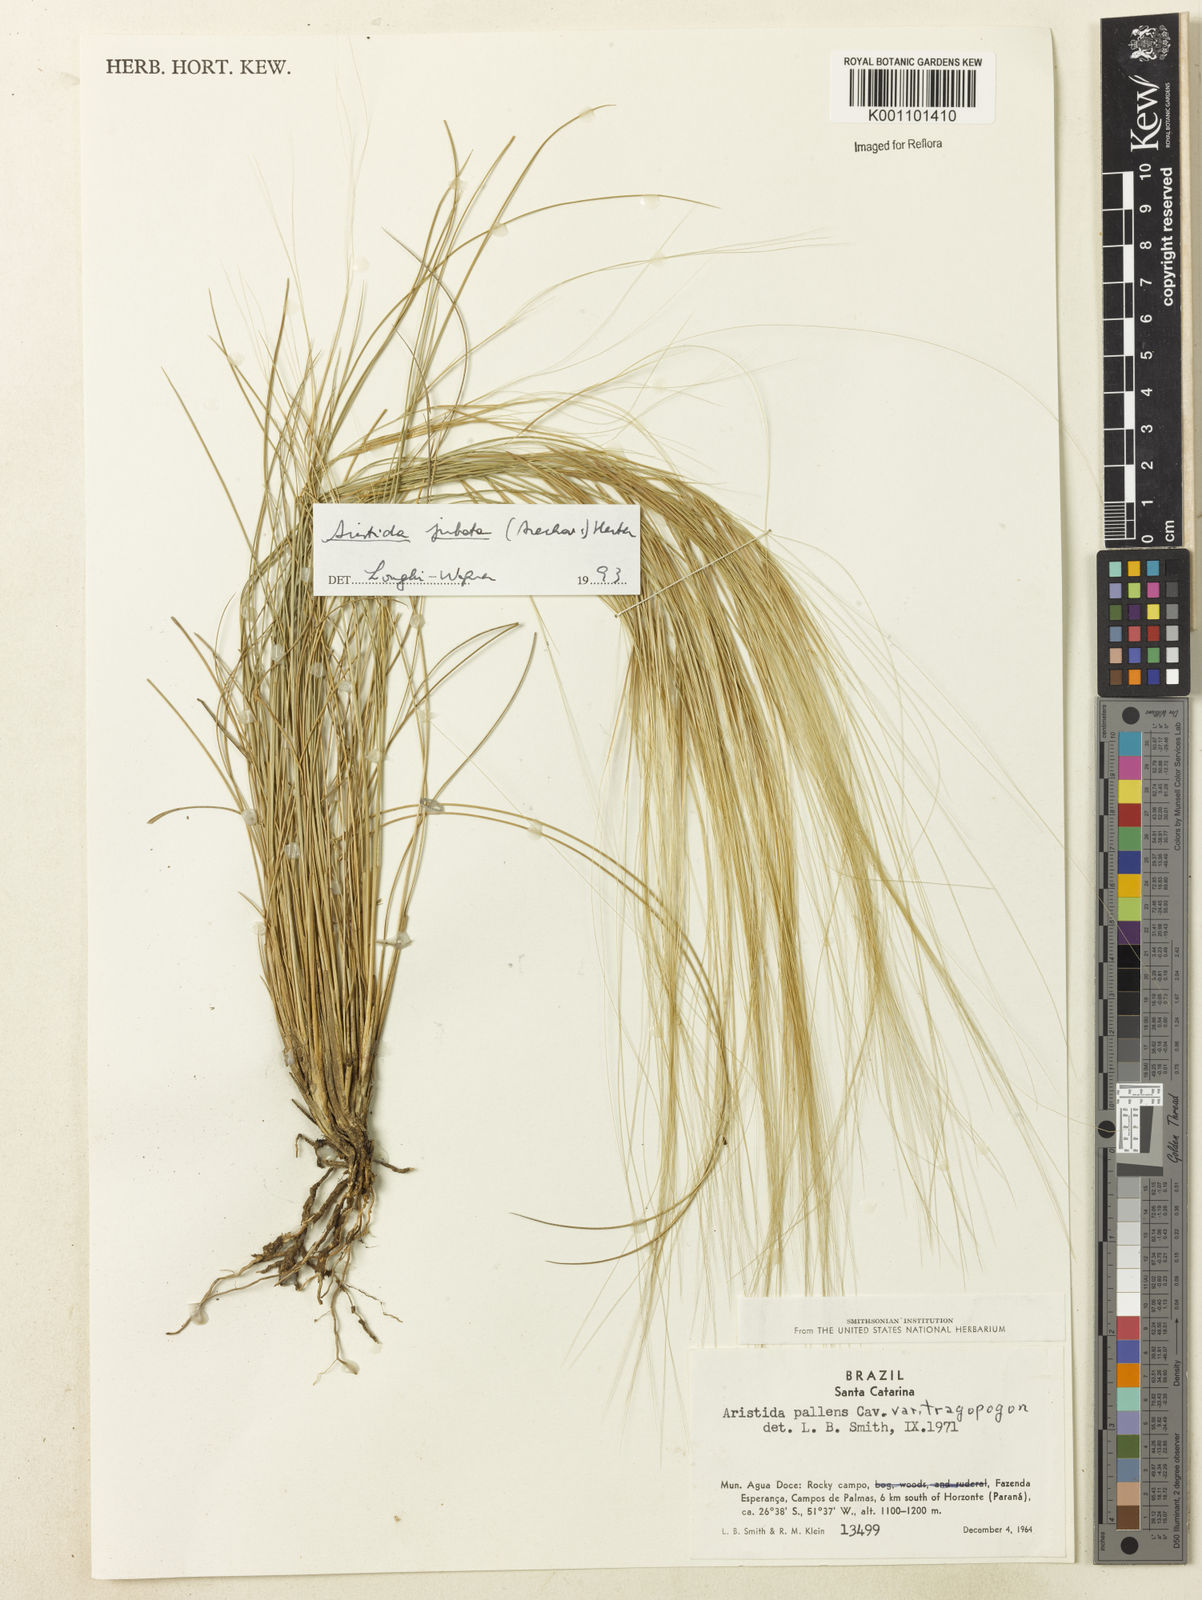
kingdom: Plantae
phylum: Tracheophyta
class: Liliopsida
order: Poales
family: Poaceae
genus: Aristida
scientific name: Aristida jubata
